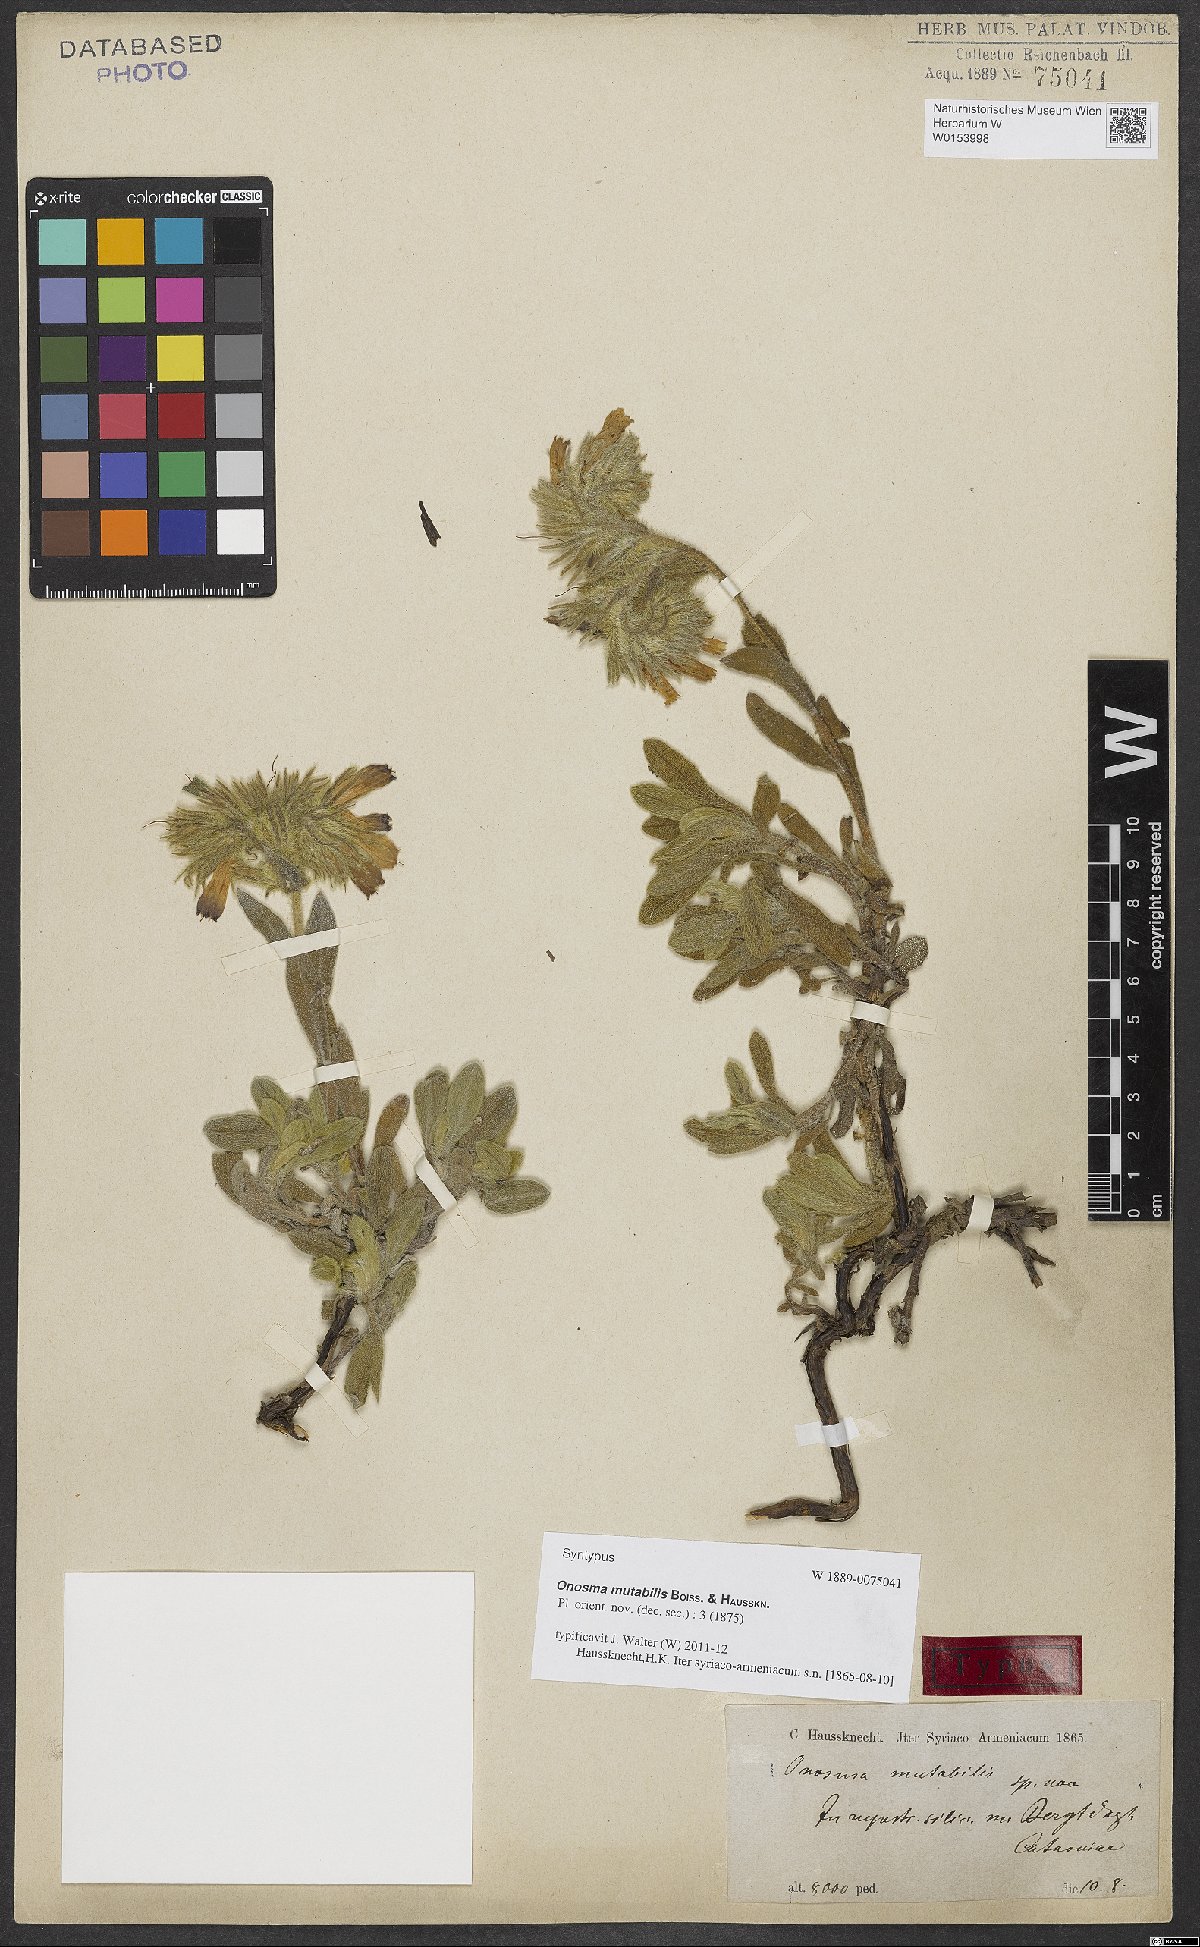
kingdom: Plantae
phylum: Tracheophyta
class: Magnoliopsida
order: Boraginales
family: Boraginaceae
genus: Onosma
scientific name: Onosma alborosea
